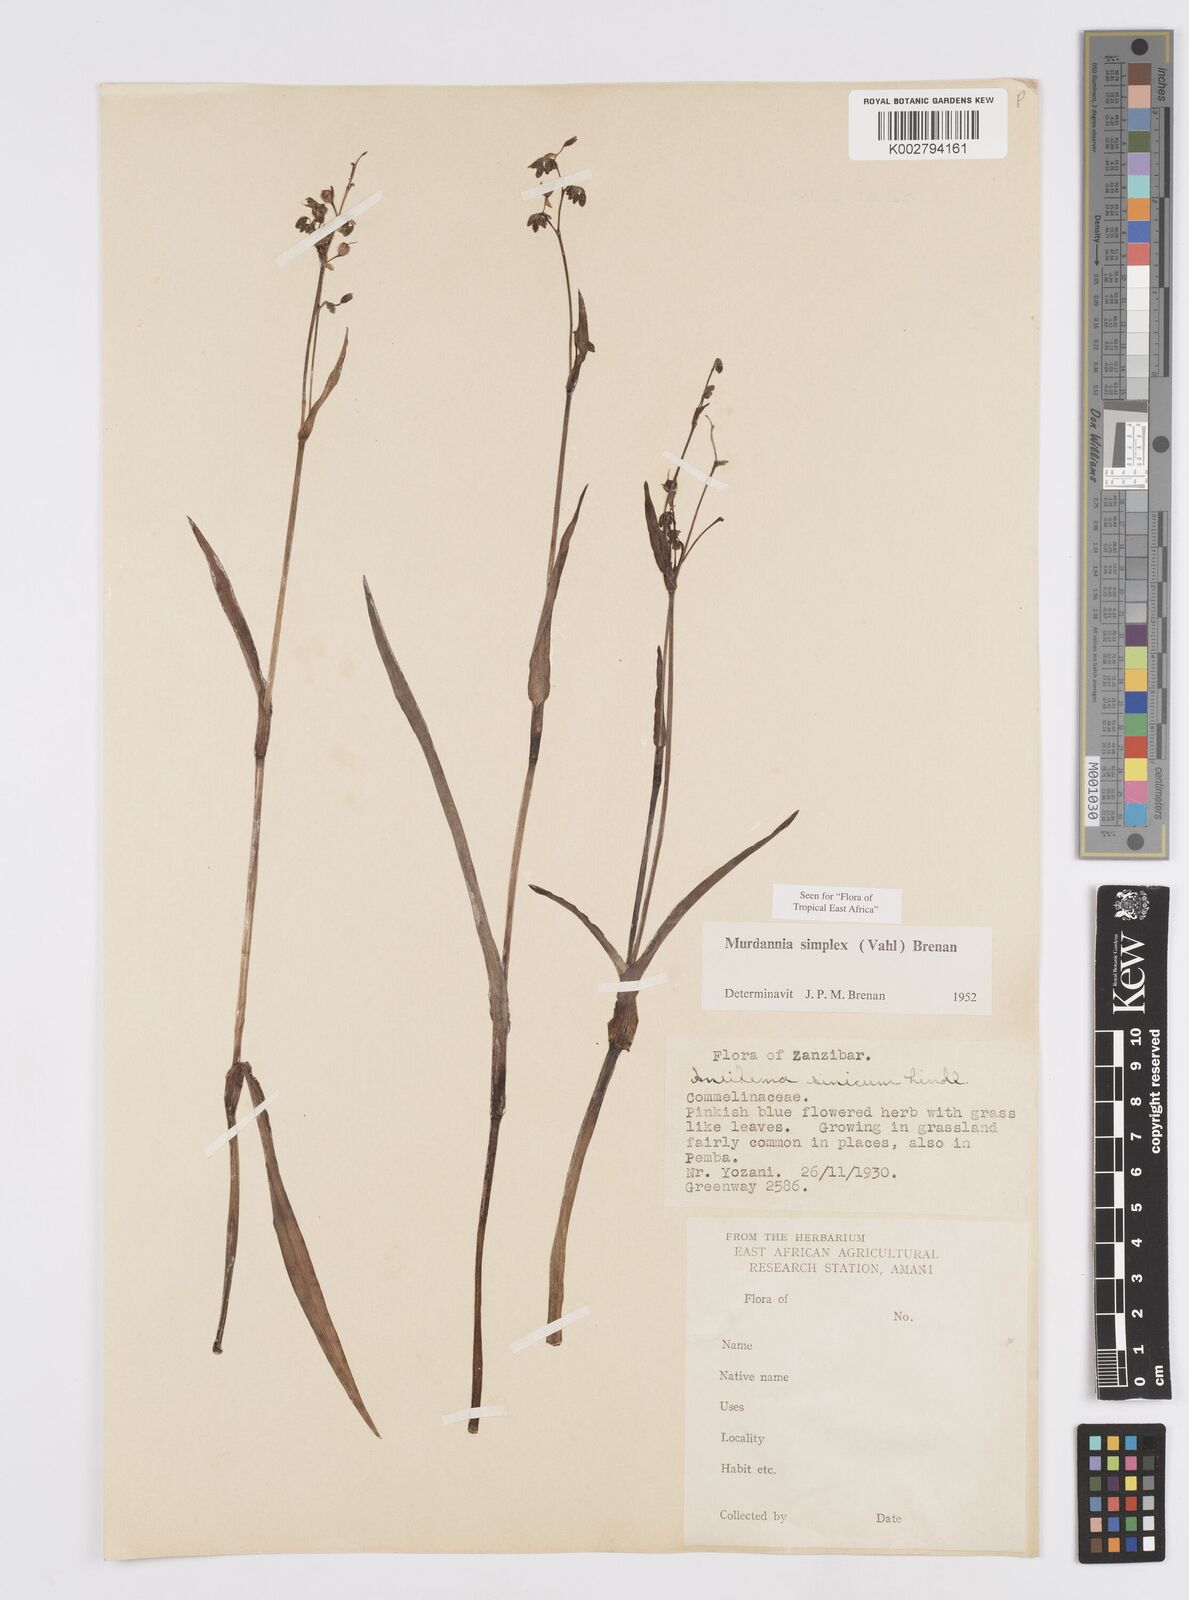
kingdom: Plantae
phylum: Tracheophyta
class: Liliopsida
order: Commelinales
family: Commelinaceae
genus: Murdannia
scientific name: Murdannia simplex
